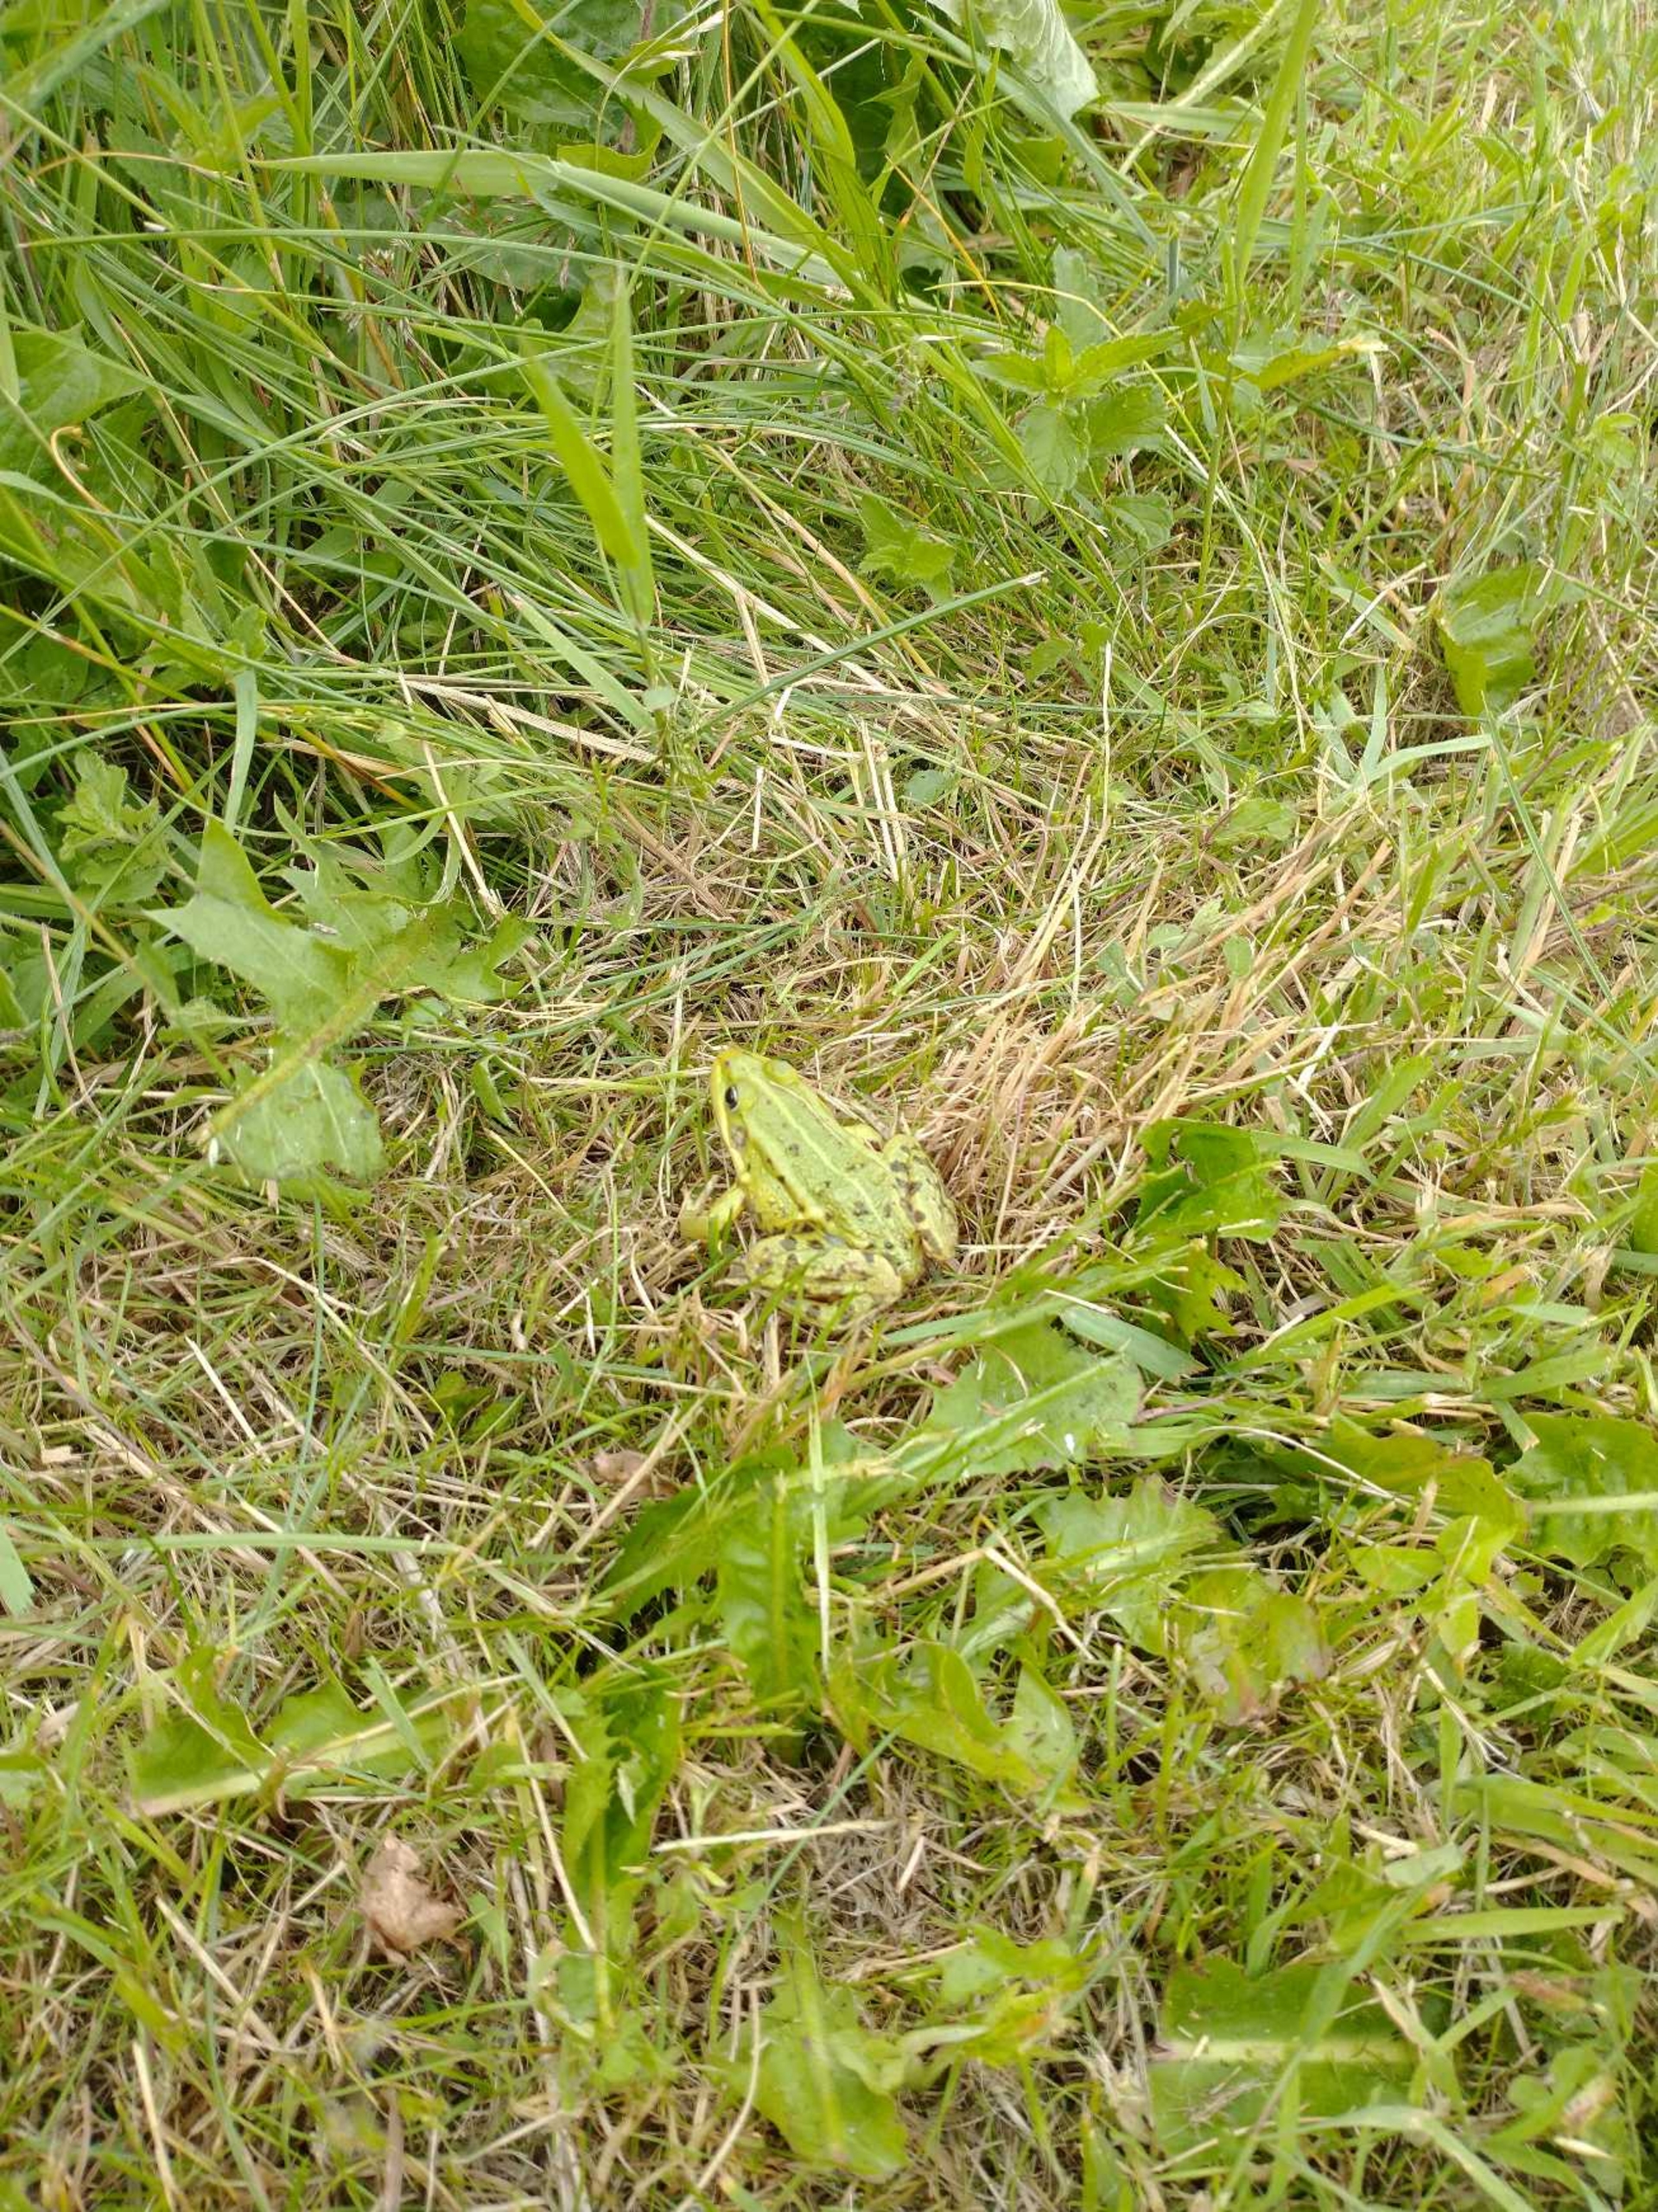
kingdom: Animalia
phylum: Chordata
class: Amphibia
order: Anura
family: Ranidae
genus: Pelophylax
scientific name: Pelophylax lessonae
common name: Grøn frø
